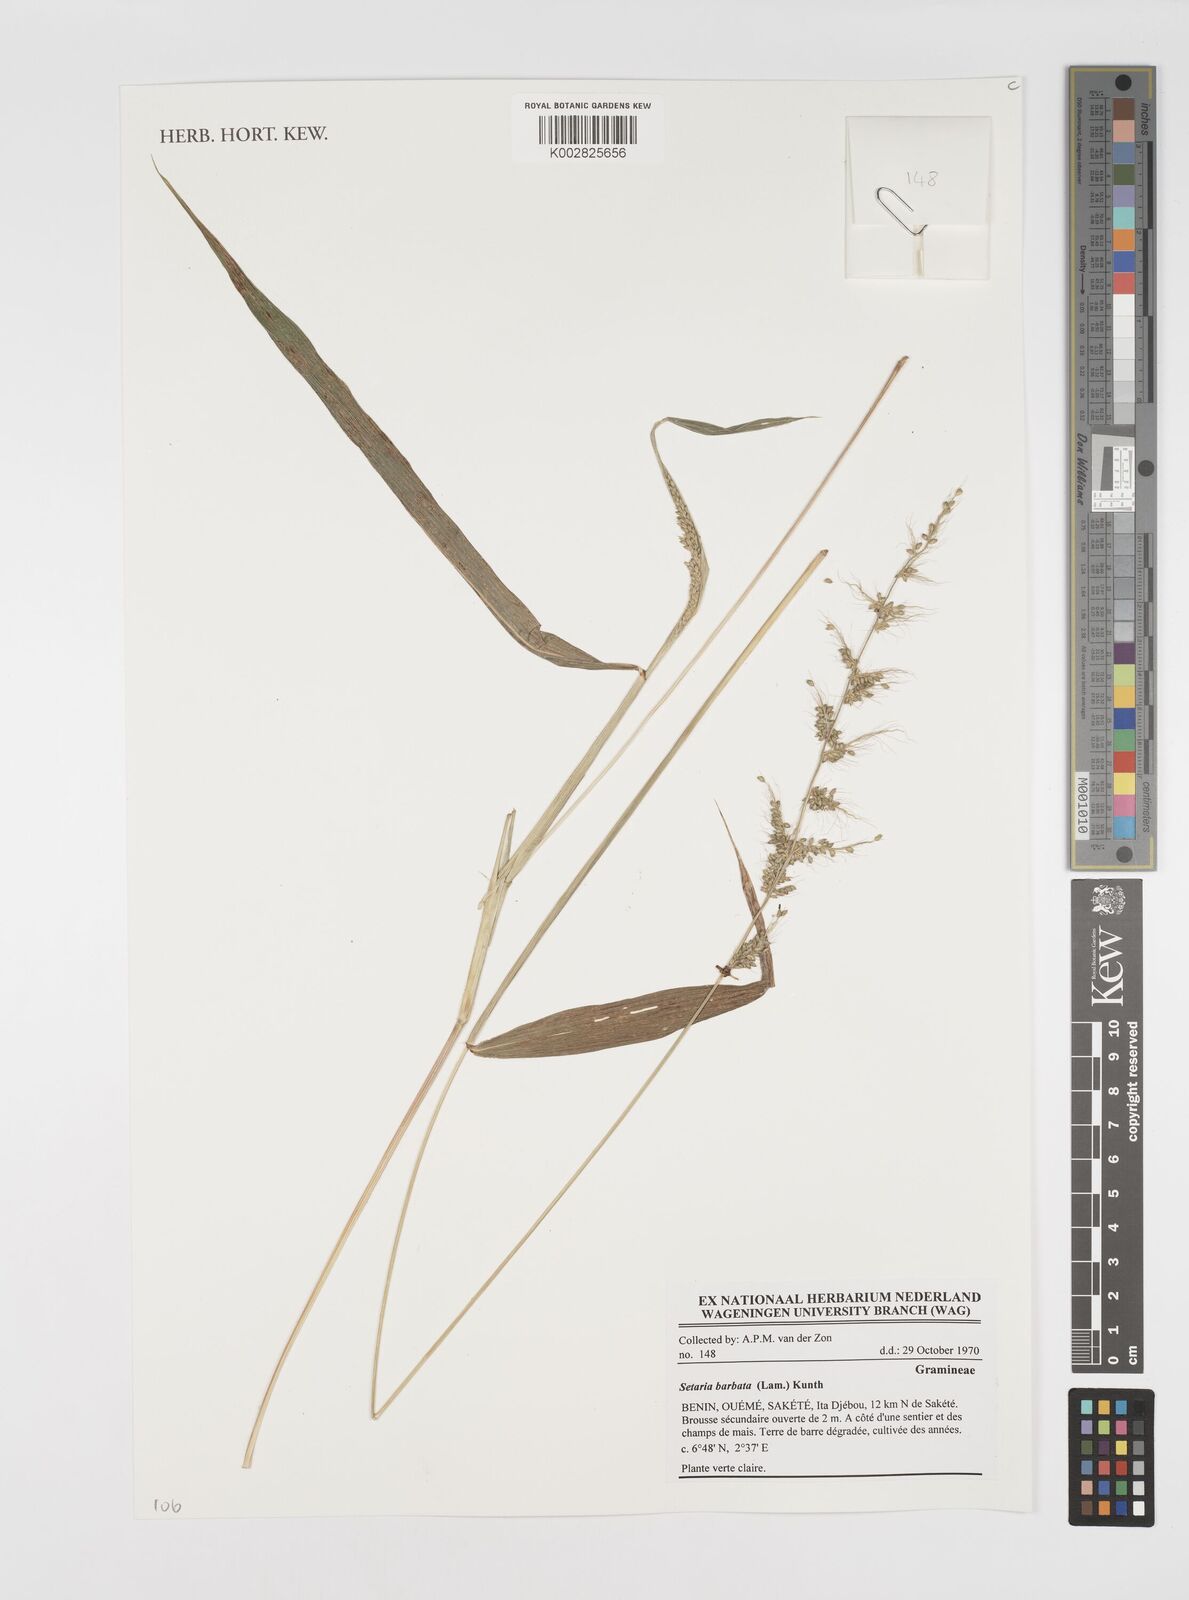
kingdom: Plantae
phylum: Tracheophyta
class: Liliopsida
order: Poales
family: Poaceae
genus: Setaria
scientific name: Setaria barbata
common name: East indian bristlegrass
